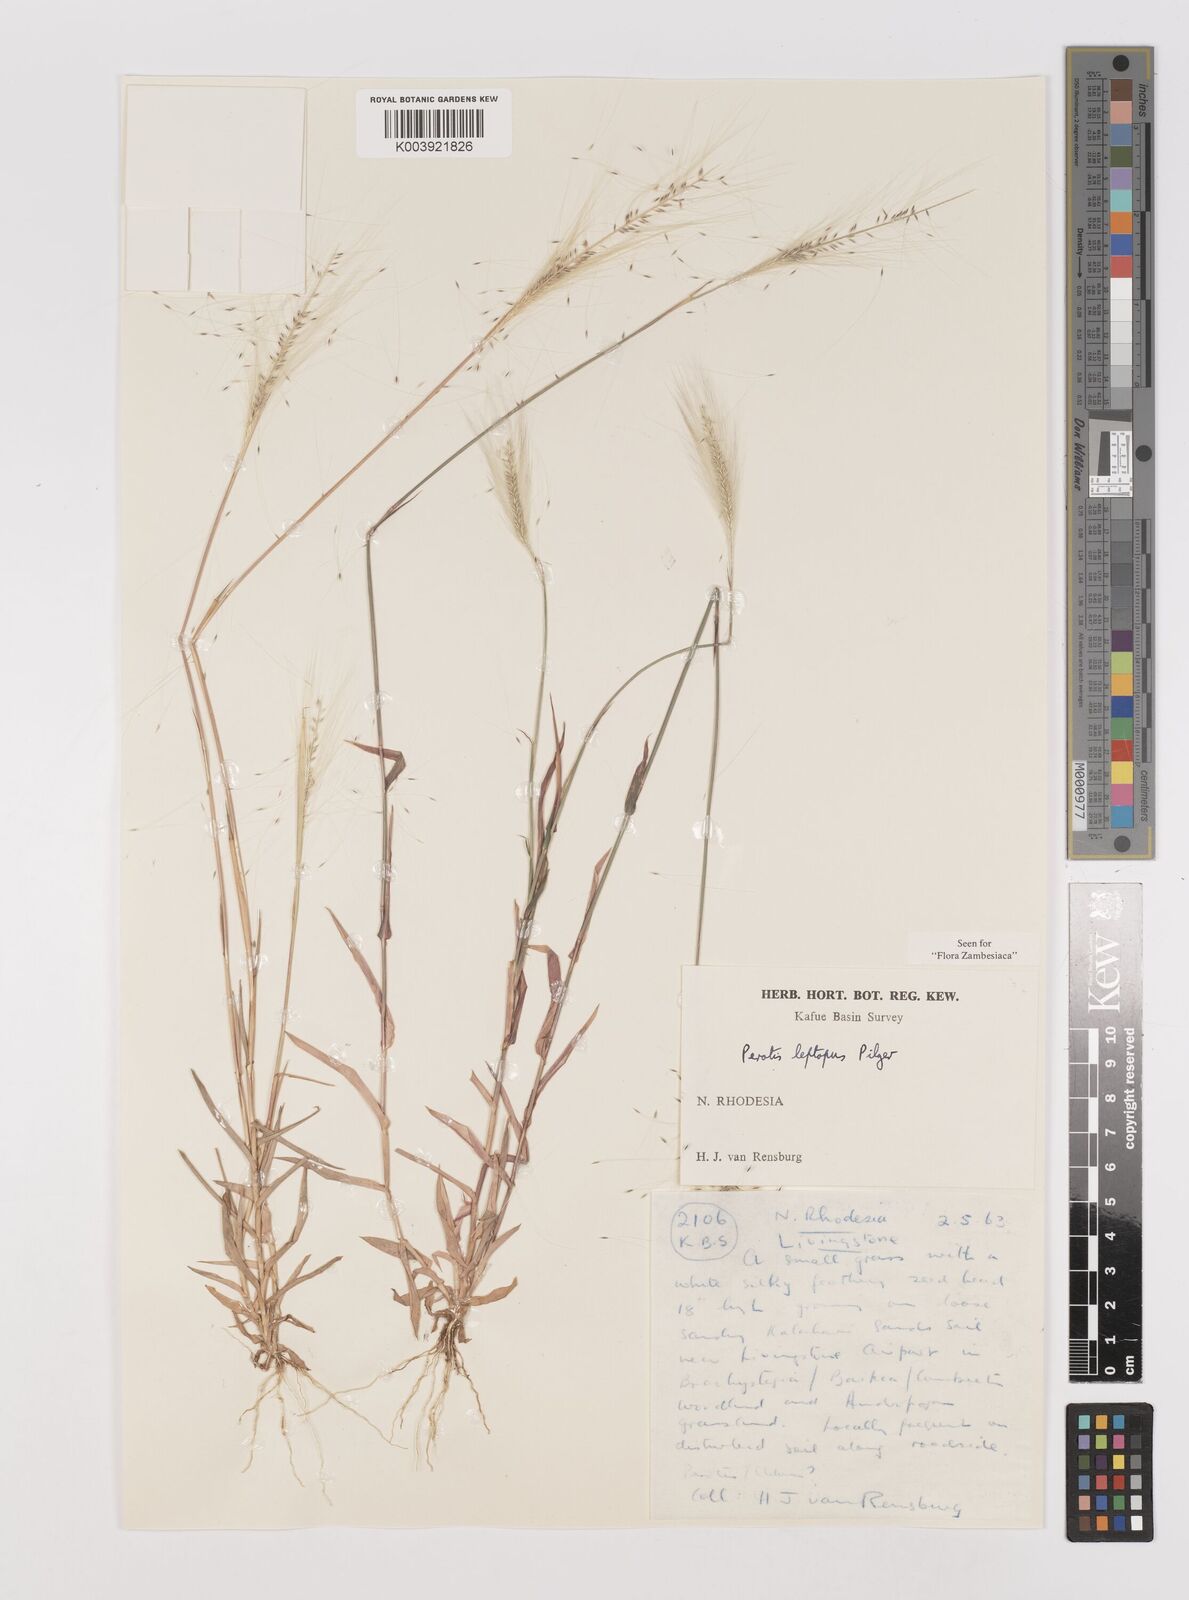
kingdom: Plantae
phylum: Tracheophyta
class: Liliopsida
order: Poales
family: Poaceae
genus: Perotis
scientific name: Perotis leptopus
